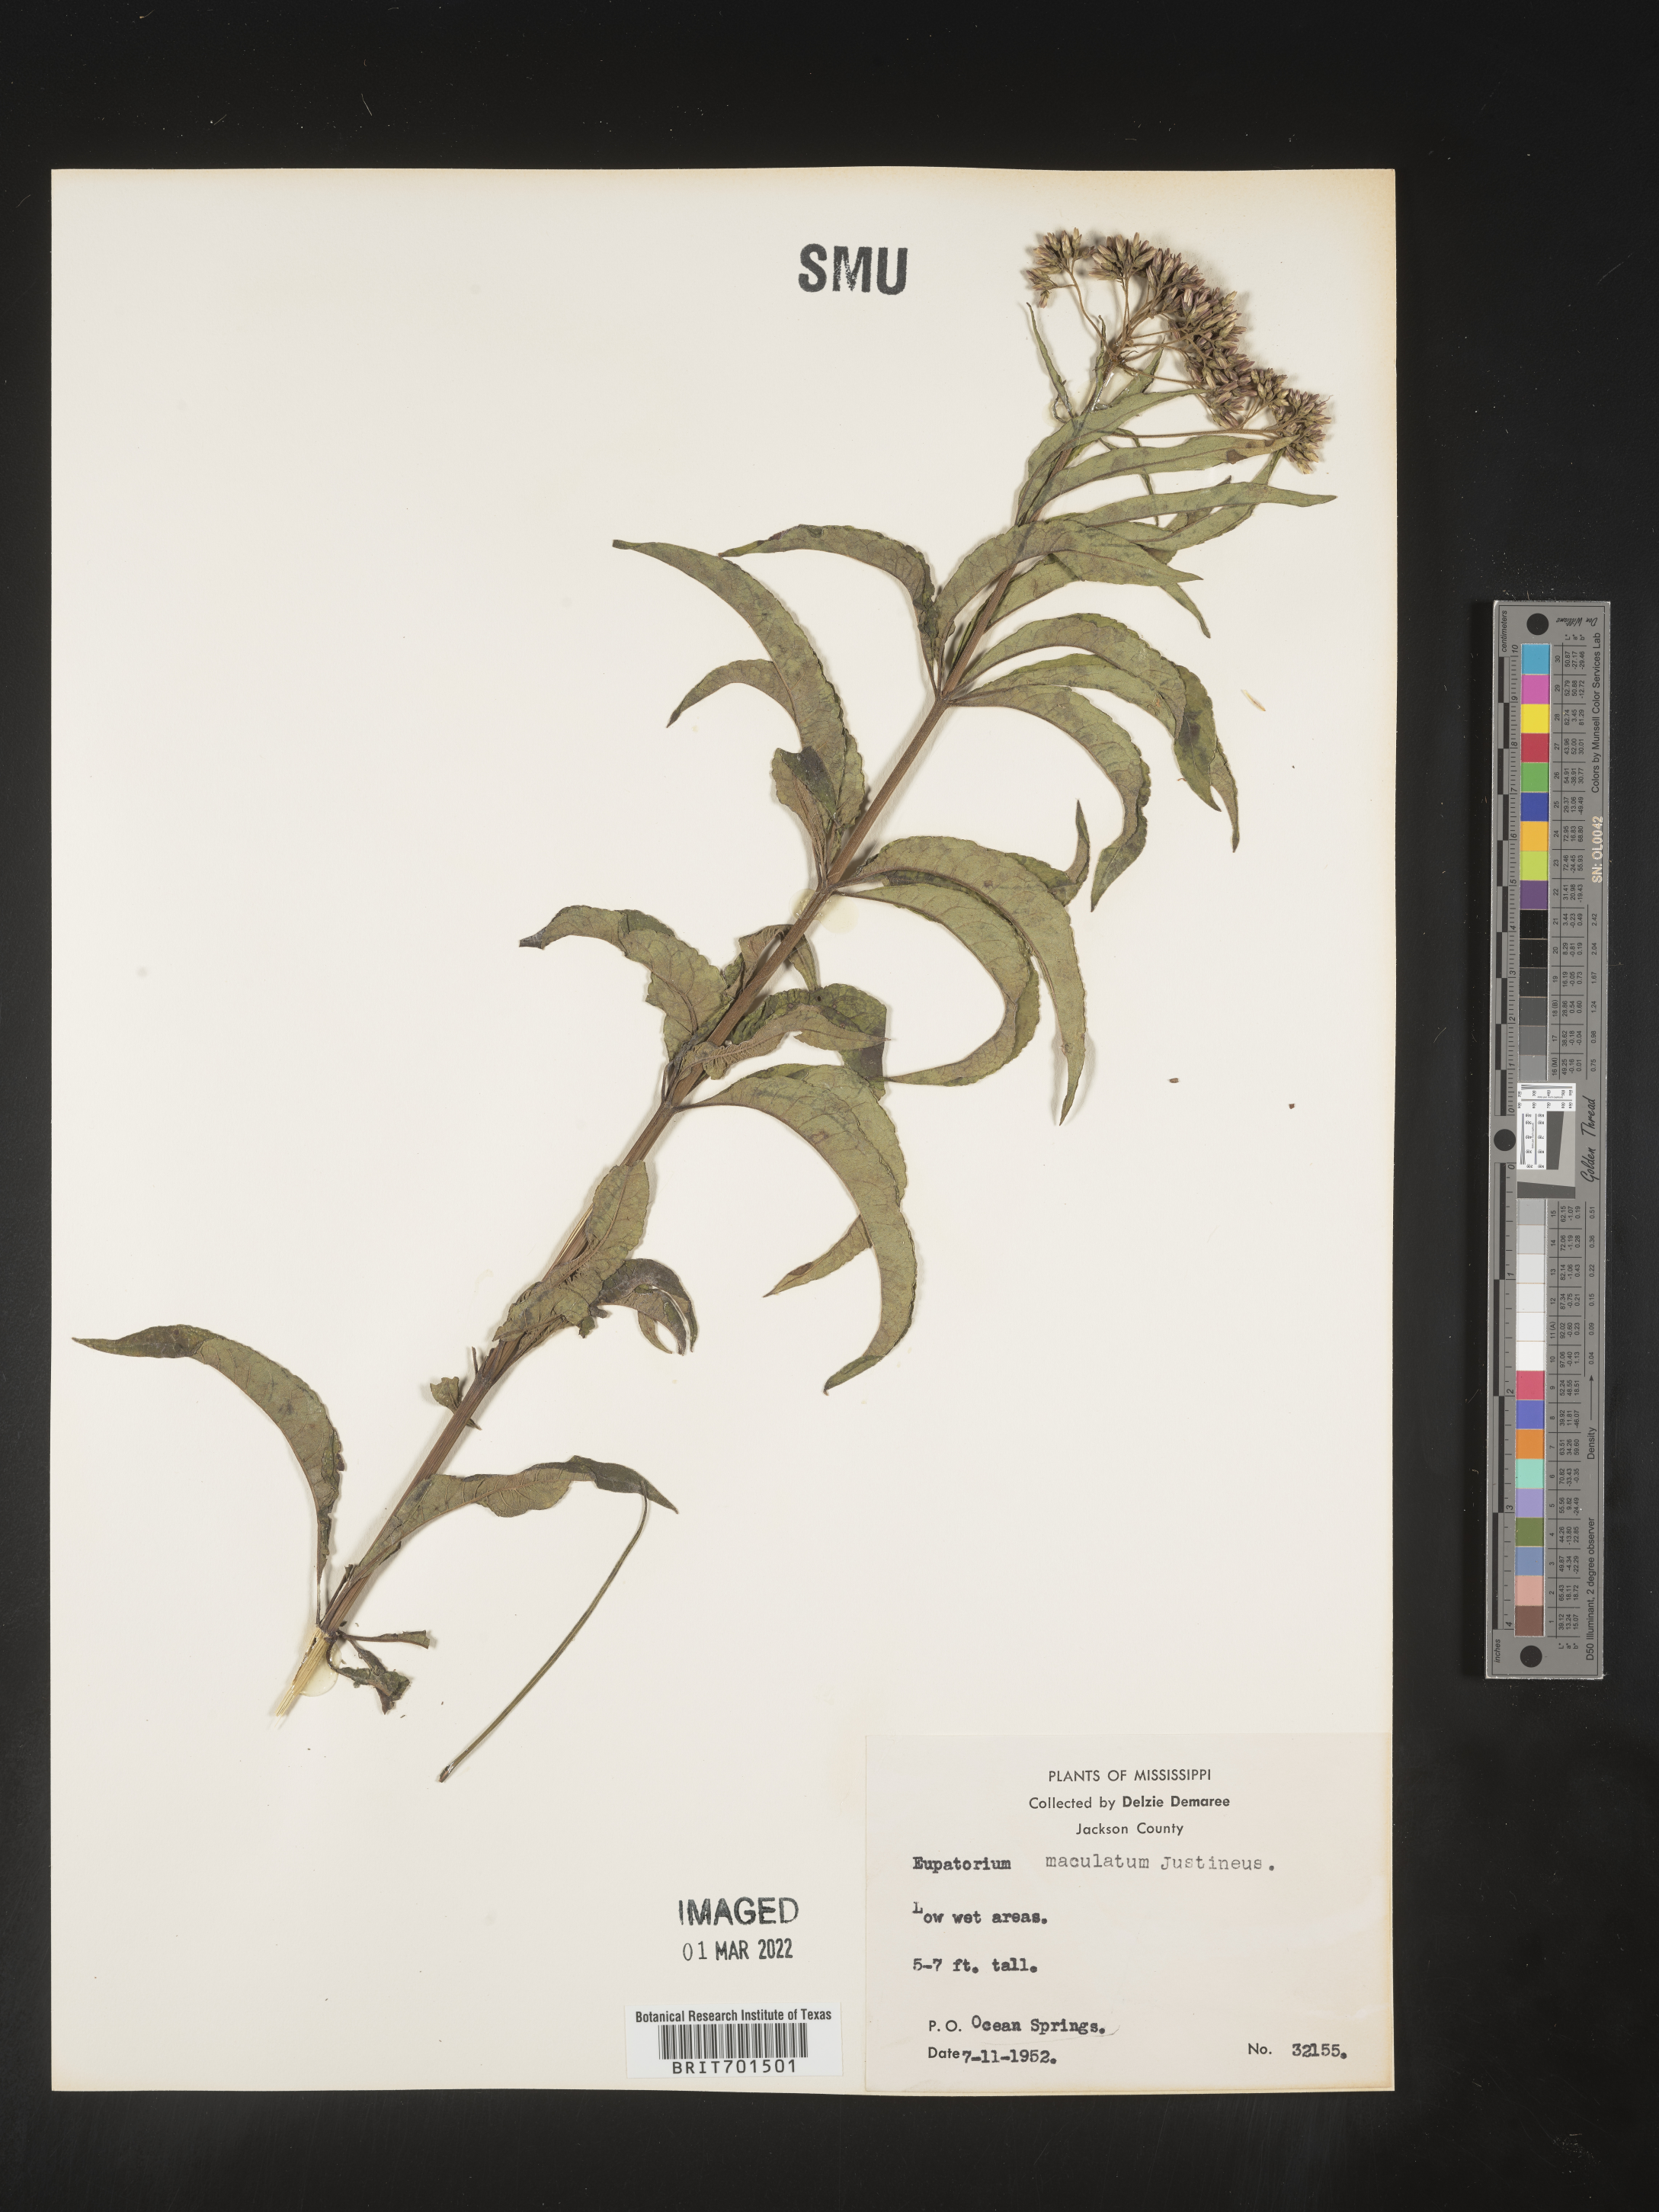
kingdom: Plantae
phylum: Tracheophyta
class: Magnoliopsida
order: Asterales
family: Asteraceae
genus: Eutrochium
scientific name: Eutrochium maculatum
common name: Spotted joe pye weed
